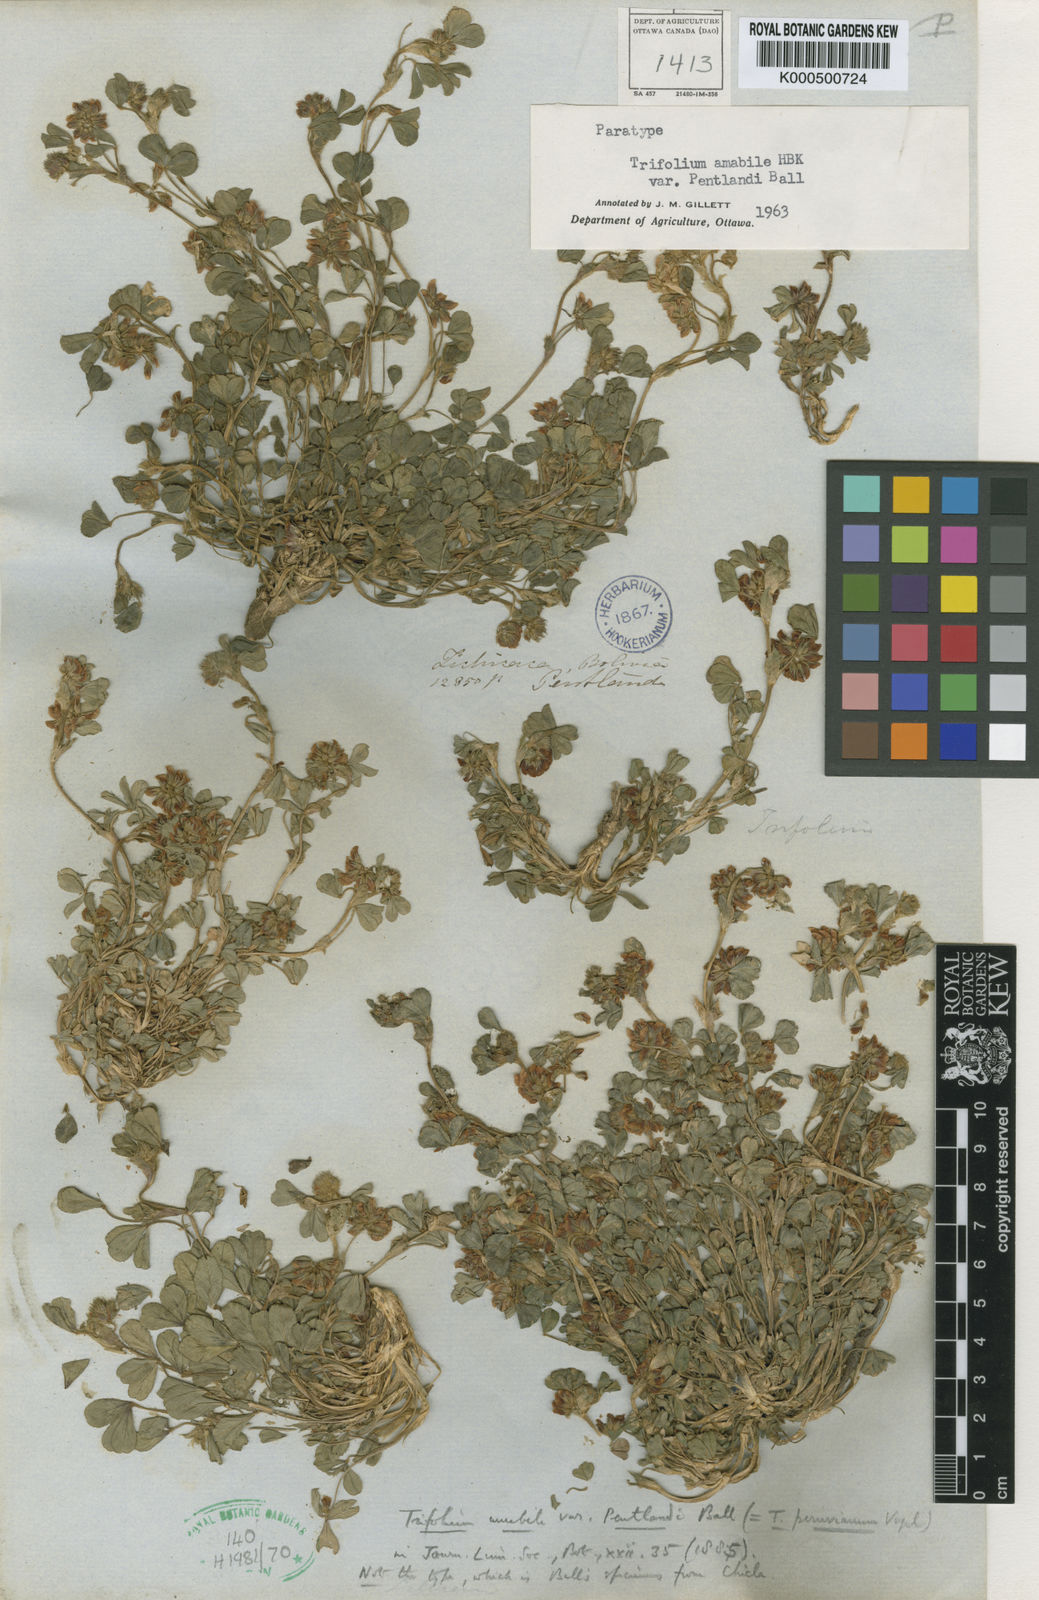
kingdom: Plantae
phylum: Tracheophyta
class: Magnoliopsida
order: Fabales
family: Fabaceae
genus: Trifolium
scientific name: Trifolium peruvianum
